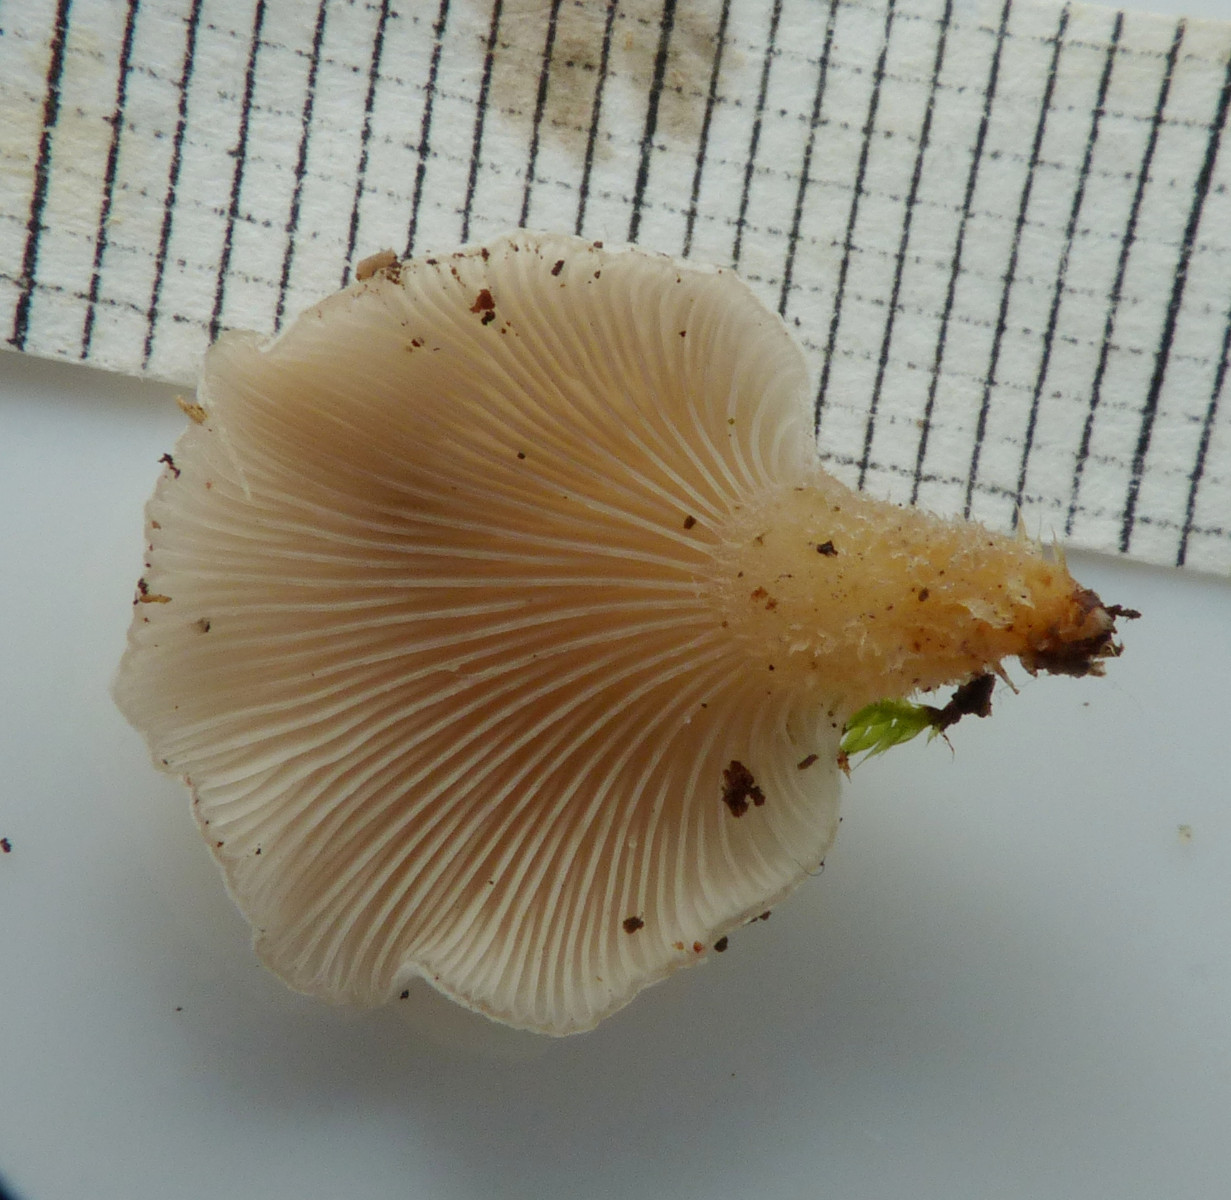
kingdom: Fungi
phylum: Basidiomycota
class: Agaricomycetes
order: Agaricales
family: Mycenaceae
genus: Panellus
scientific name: Panellus mitis
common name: mild epaulethat
